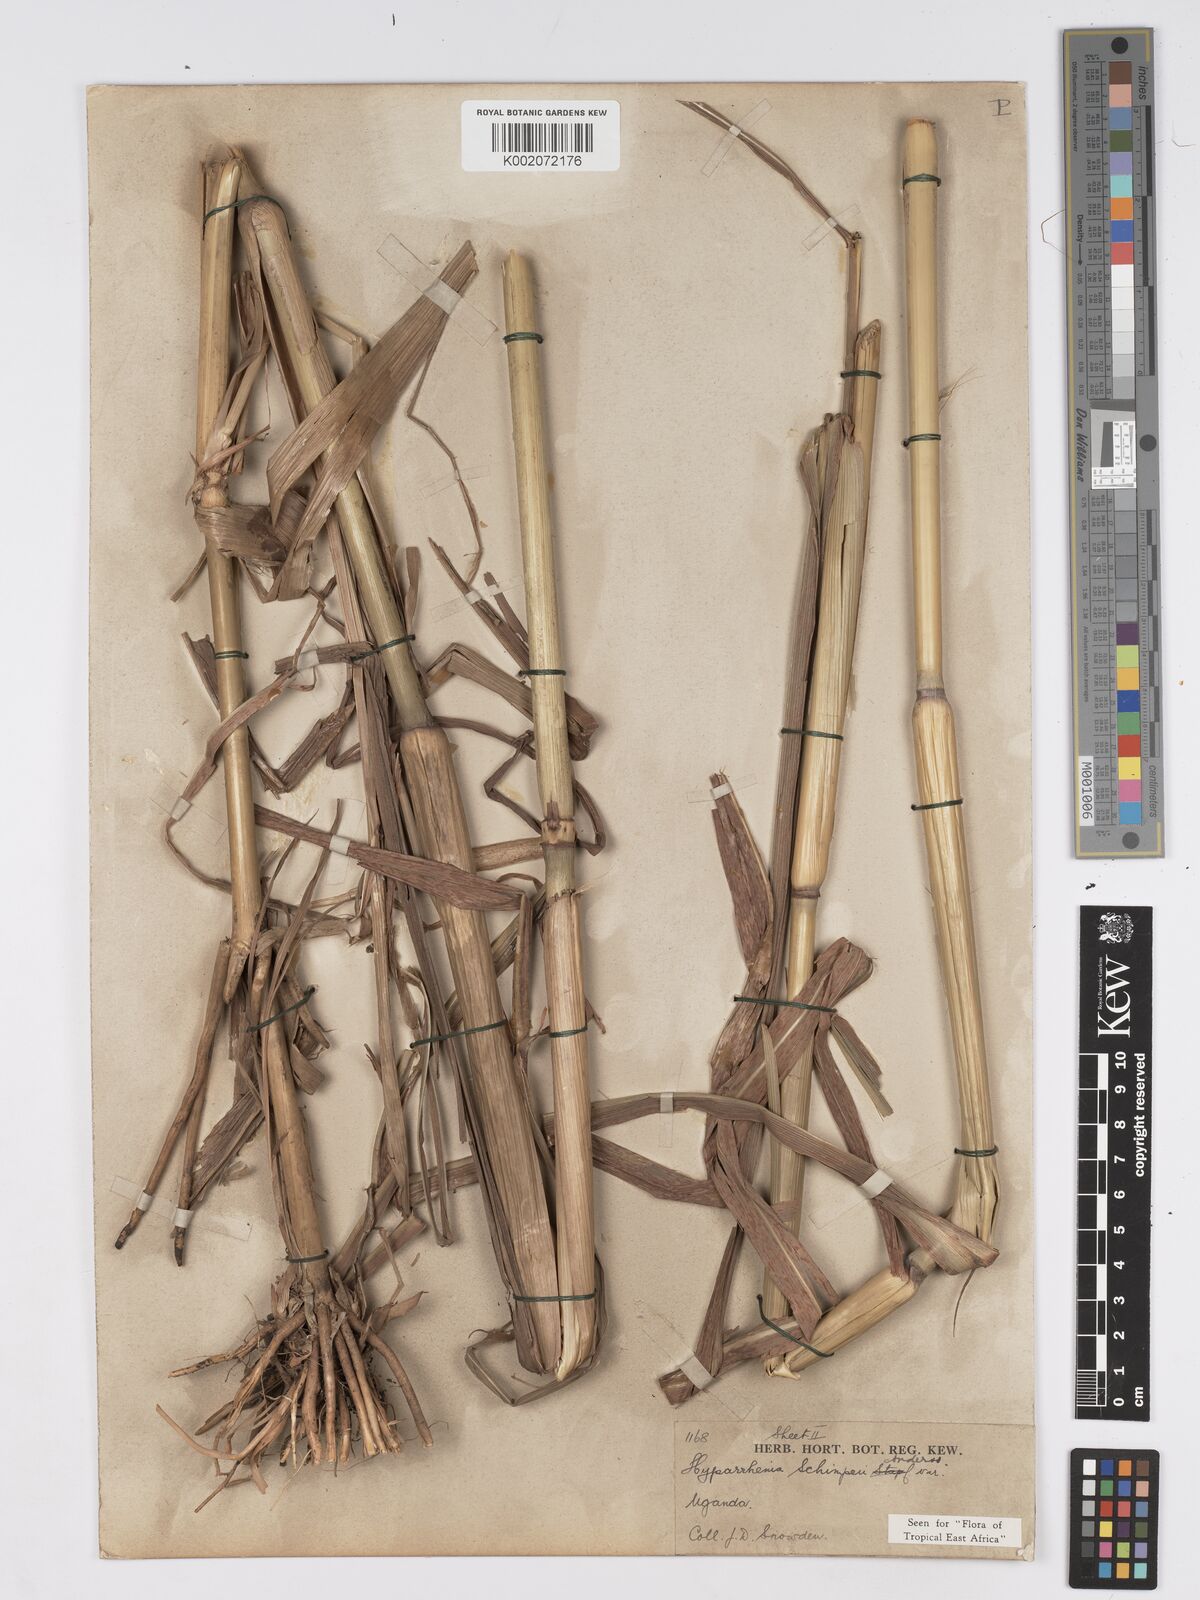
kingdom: Plantae
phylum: Tracheophyta
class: Liliopsida
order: Poales
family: Poaceae
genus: Hyparrhenia
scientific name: Hyparrhenia schimperi
